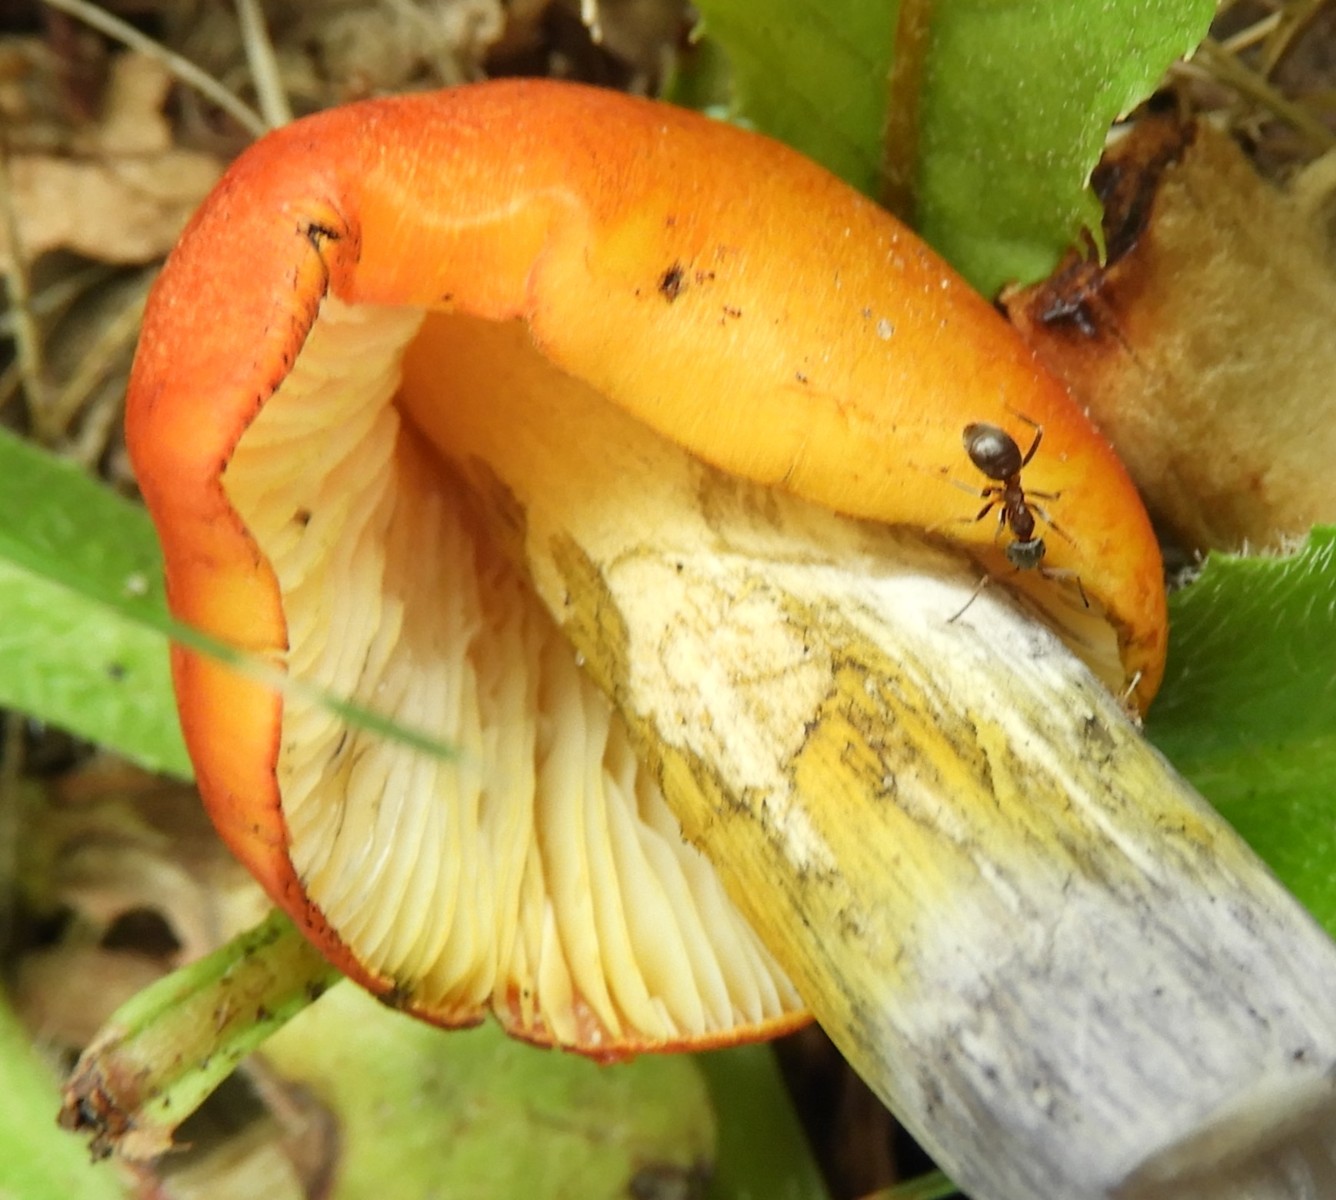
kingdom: Fungi
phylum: Basidiomycota
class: Agaricomycetes
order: Agaricales
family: Hygrophoraceae
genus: Hygrocybe
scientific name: Hygrocybe conica
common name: kegle-vokshat
